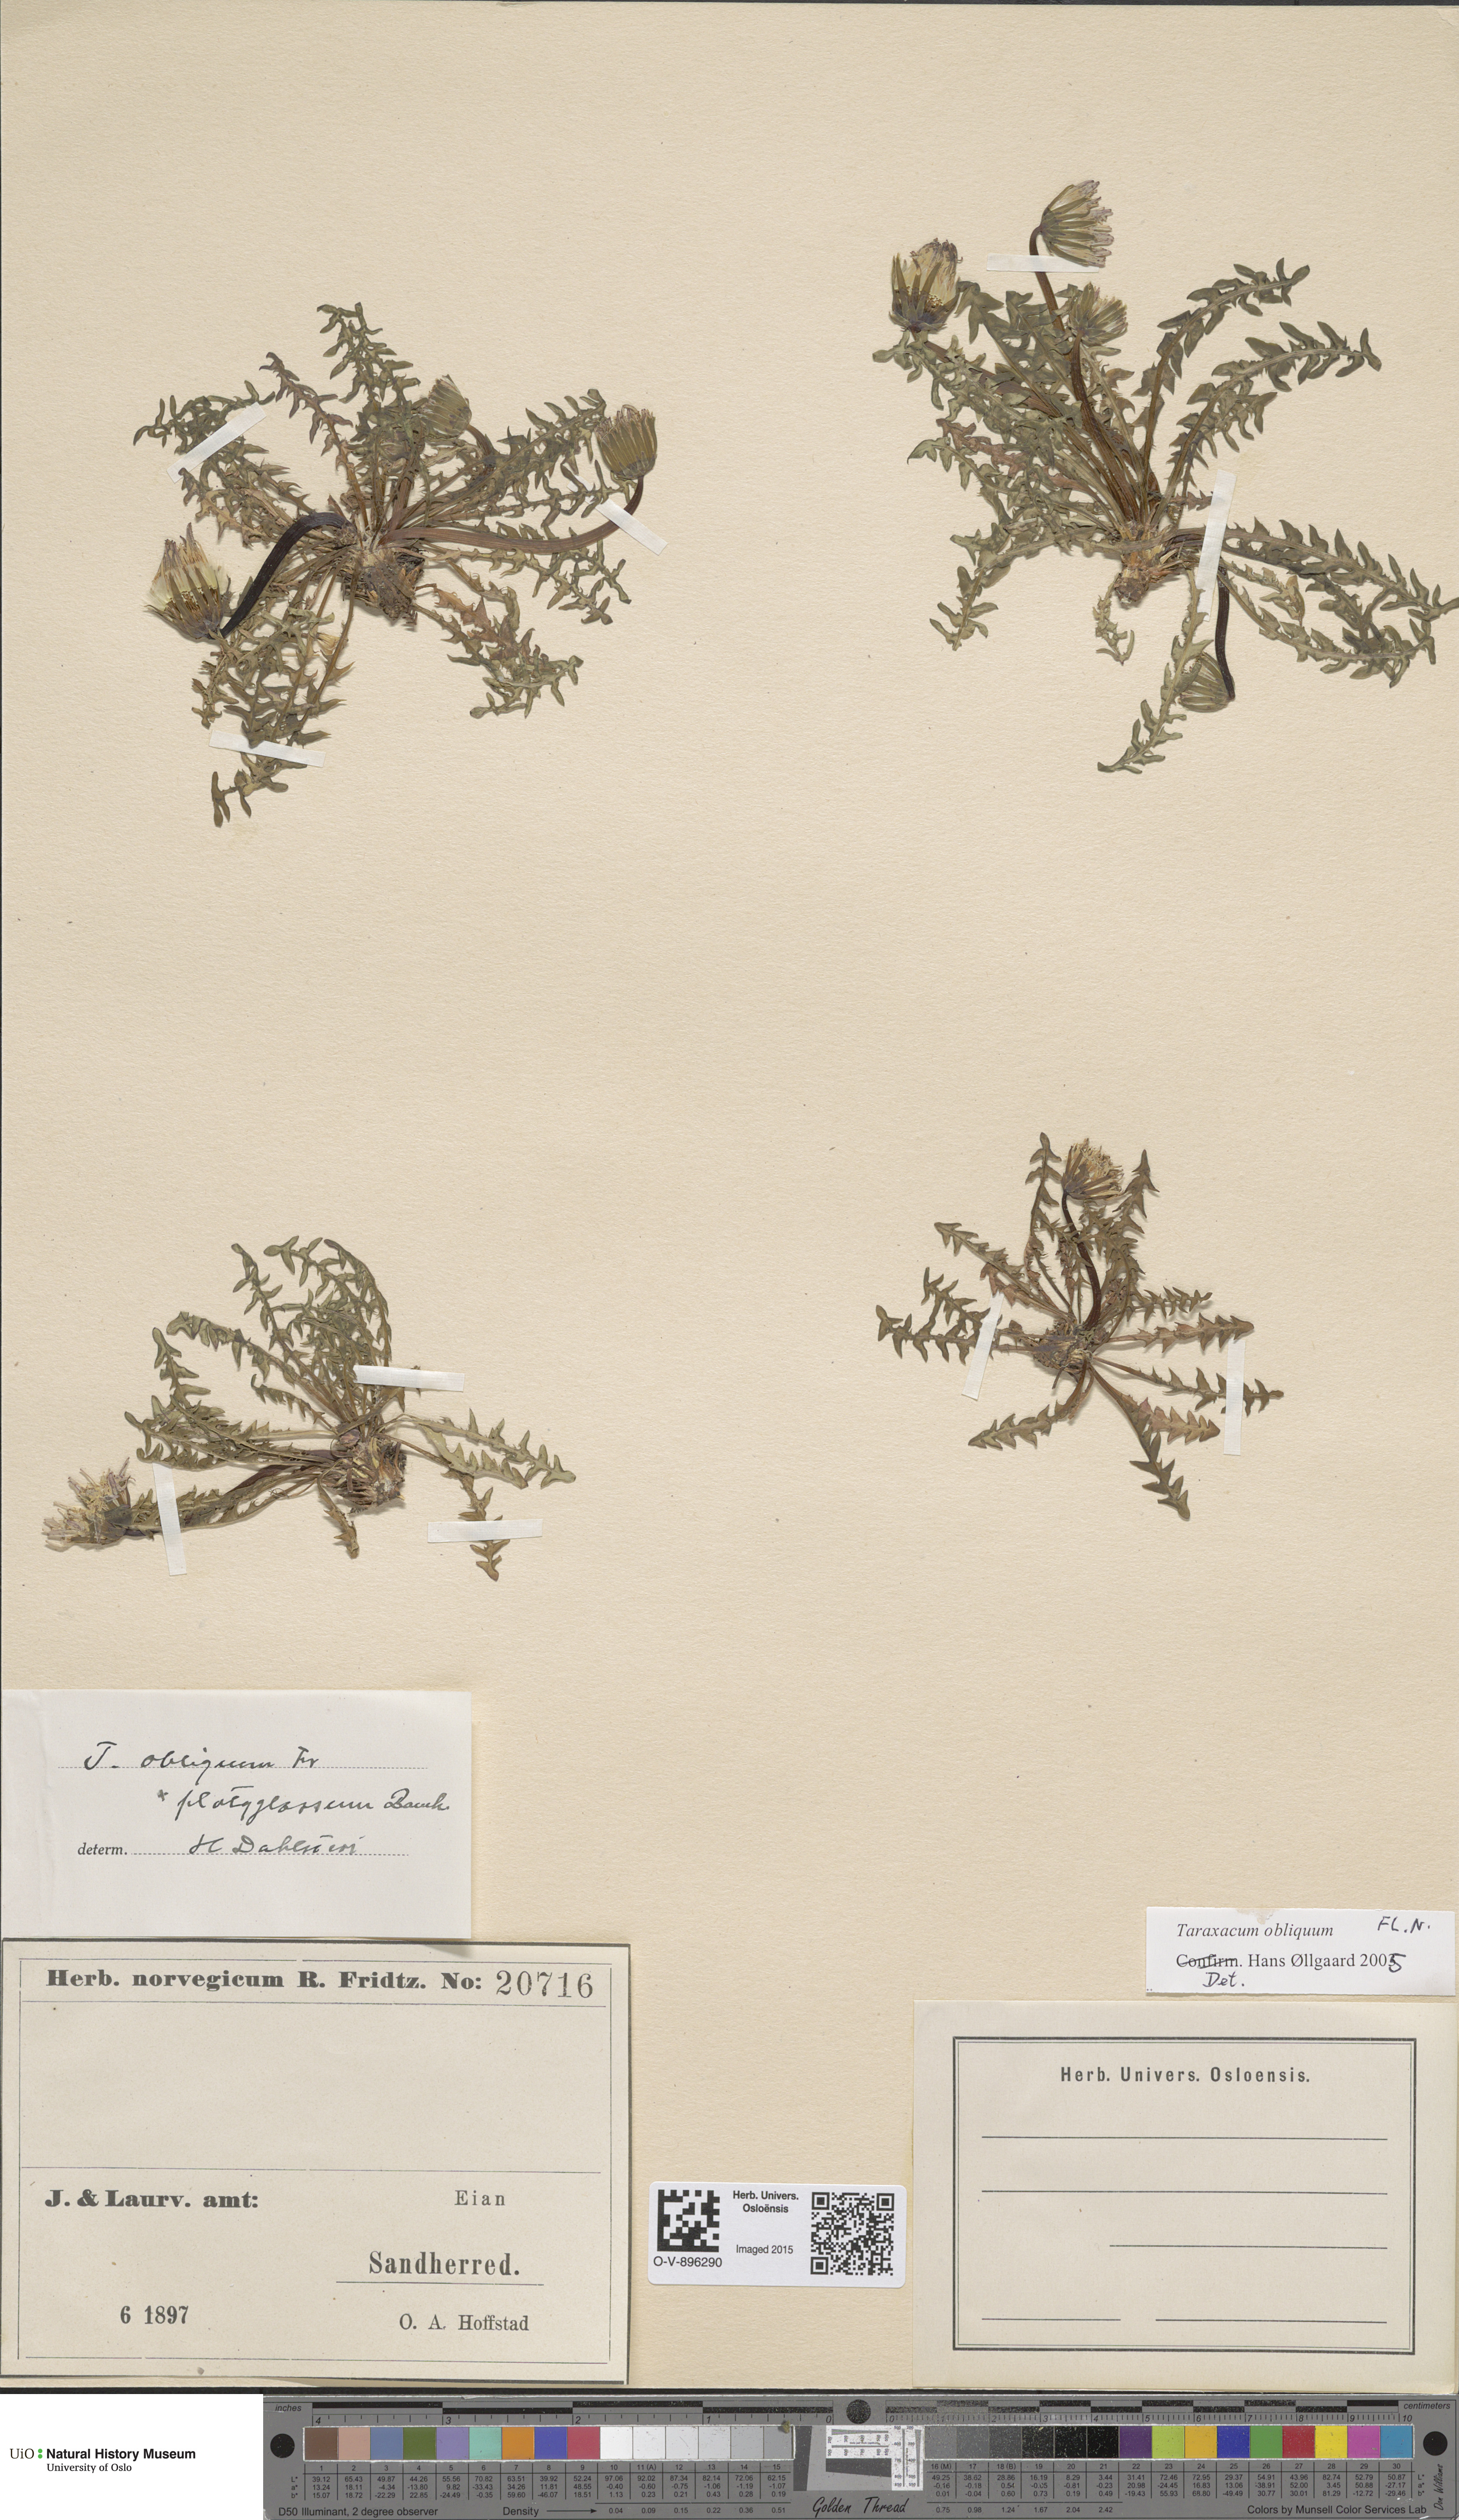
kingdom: Plantae
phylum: Tracheophyta
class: Magnoliopsida
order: Asterales
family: Asteraceae
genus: Taraxacum
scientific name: Taraxacum obliquum
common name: Many-lobed dandelion
